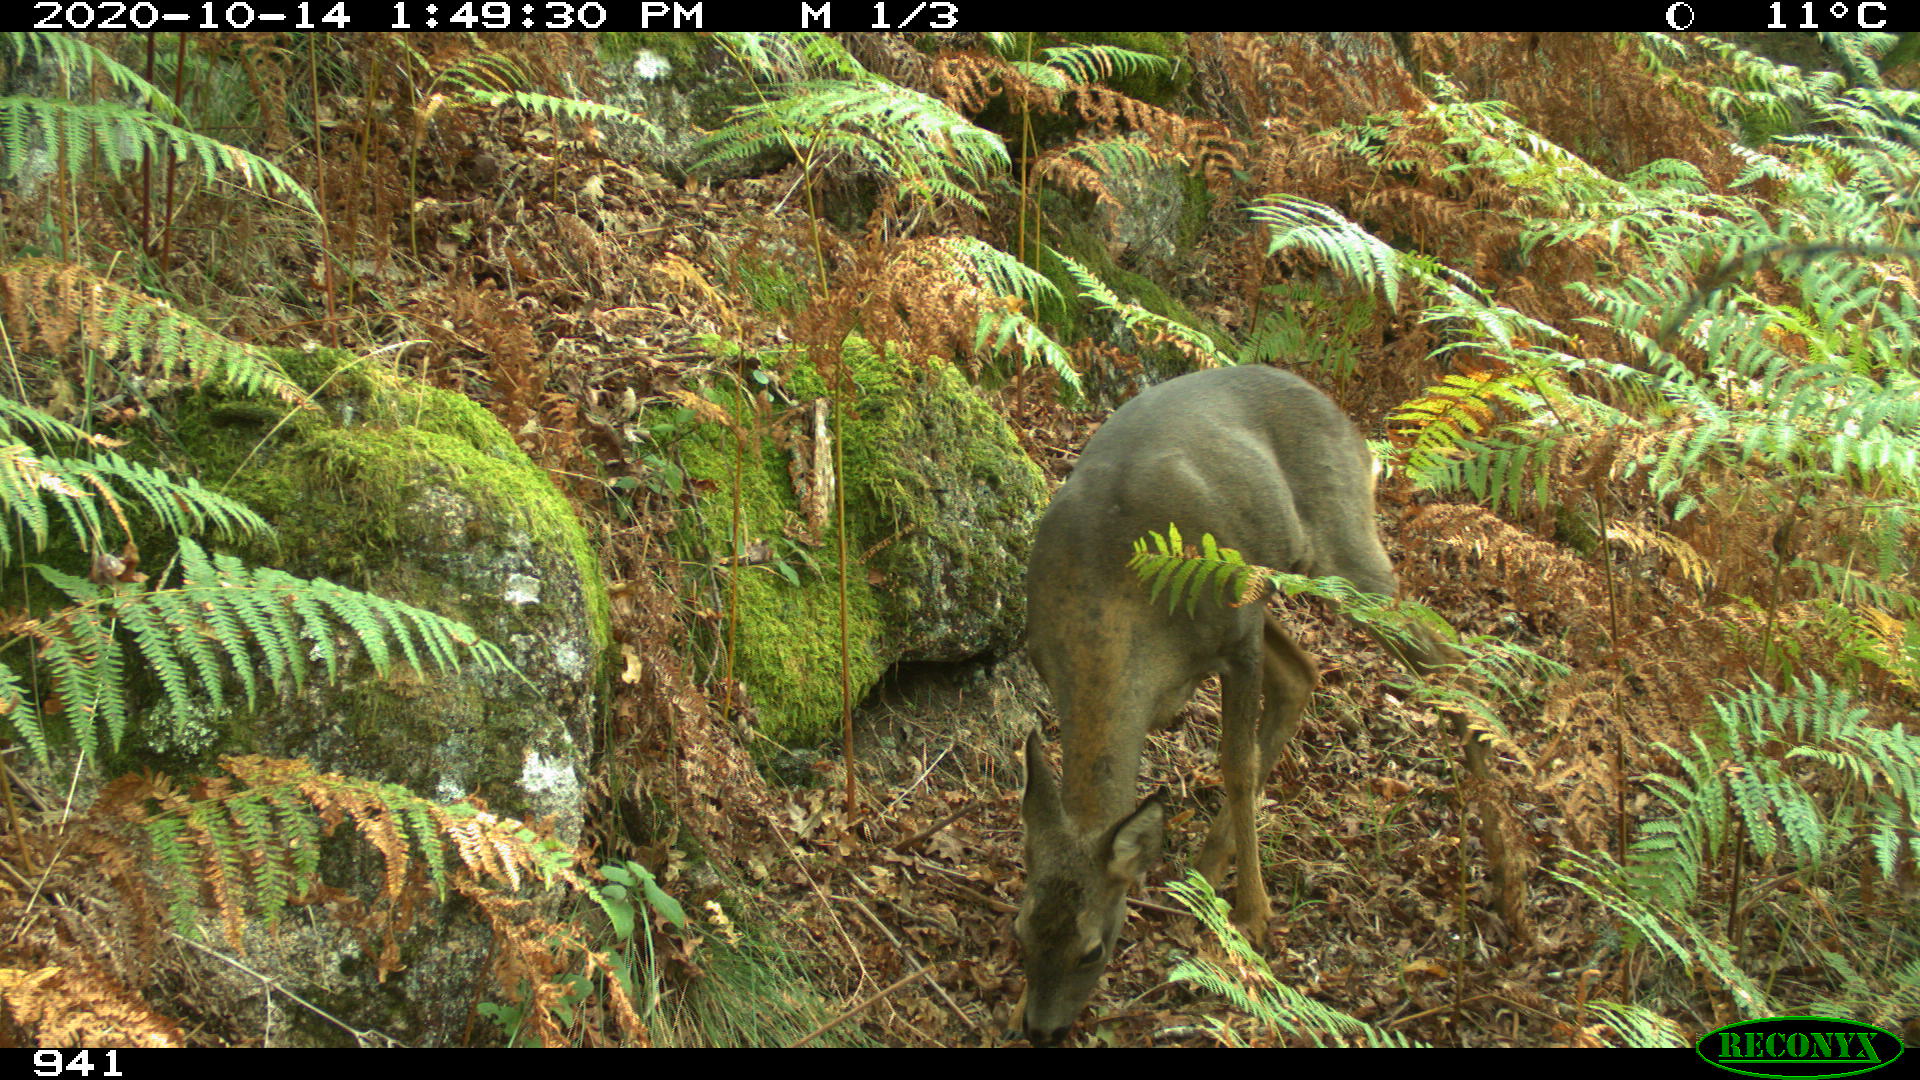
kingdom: Animalia
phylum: Chordata
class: Mammalia
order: Artiodactyla
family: Cervidae
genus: Capreolus
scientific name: Capreolus capreolus
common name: Western roe deer
